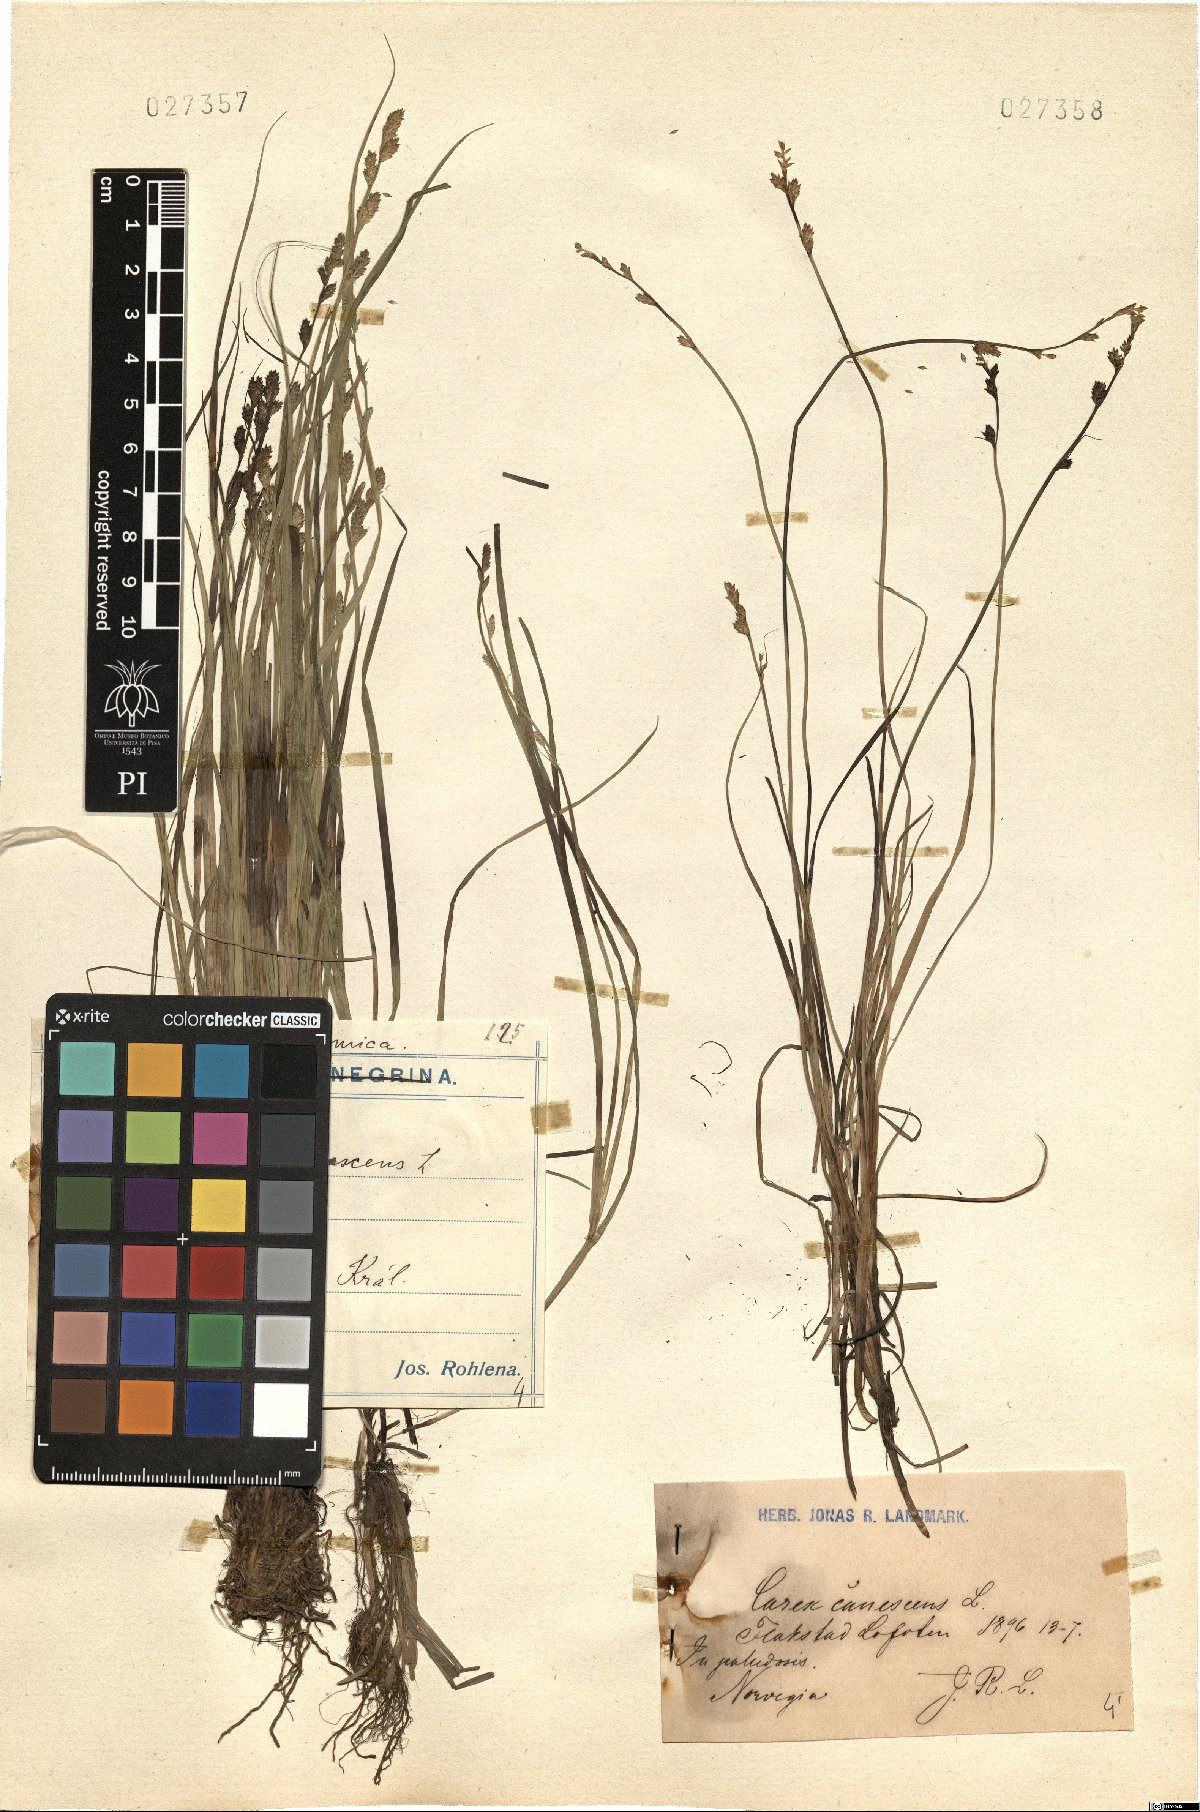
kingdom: Plantae
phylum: Tracheophyta
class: Liliopsida
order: Poales
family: Cyperaceae
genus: Carex
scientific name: Carex canescens
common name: White sedge
